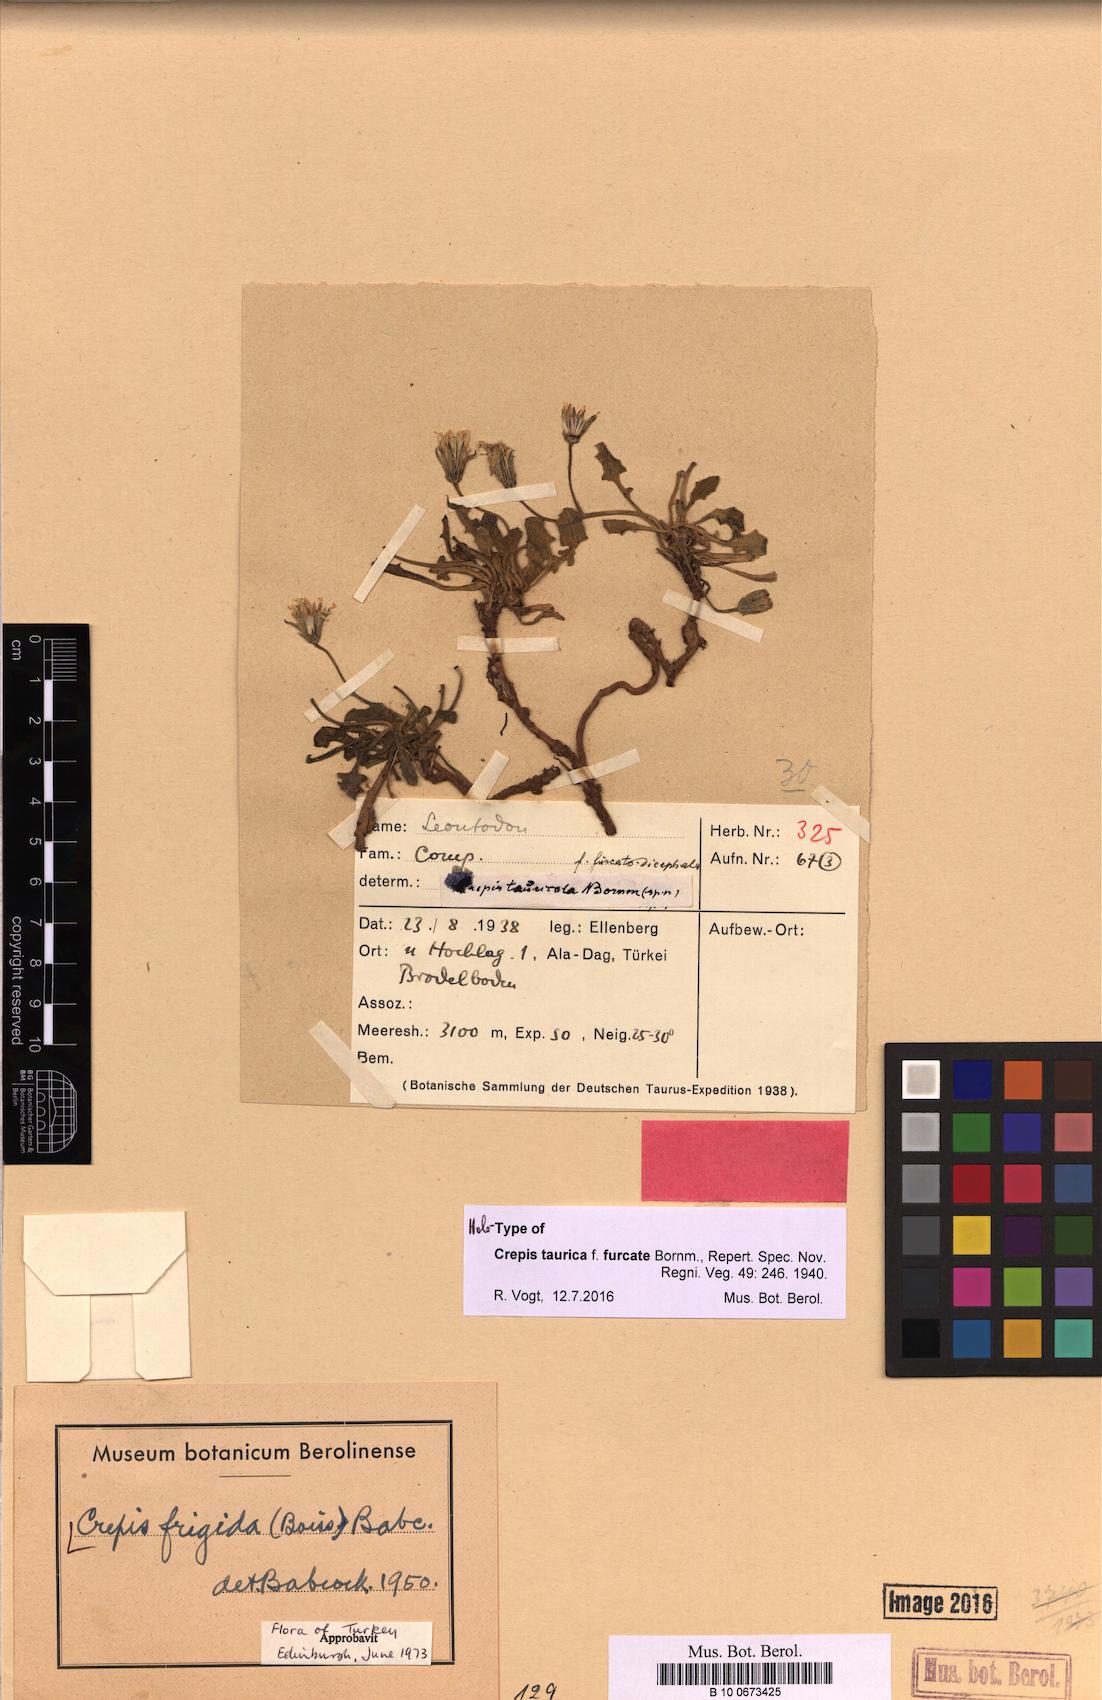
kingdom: Plantae
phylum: Tracheophyta
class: Magnoliopsida
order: Asterales
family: Asteraceae
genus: Crepis
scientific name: Crepis frigida
